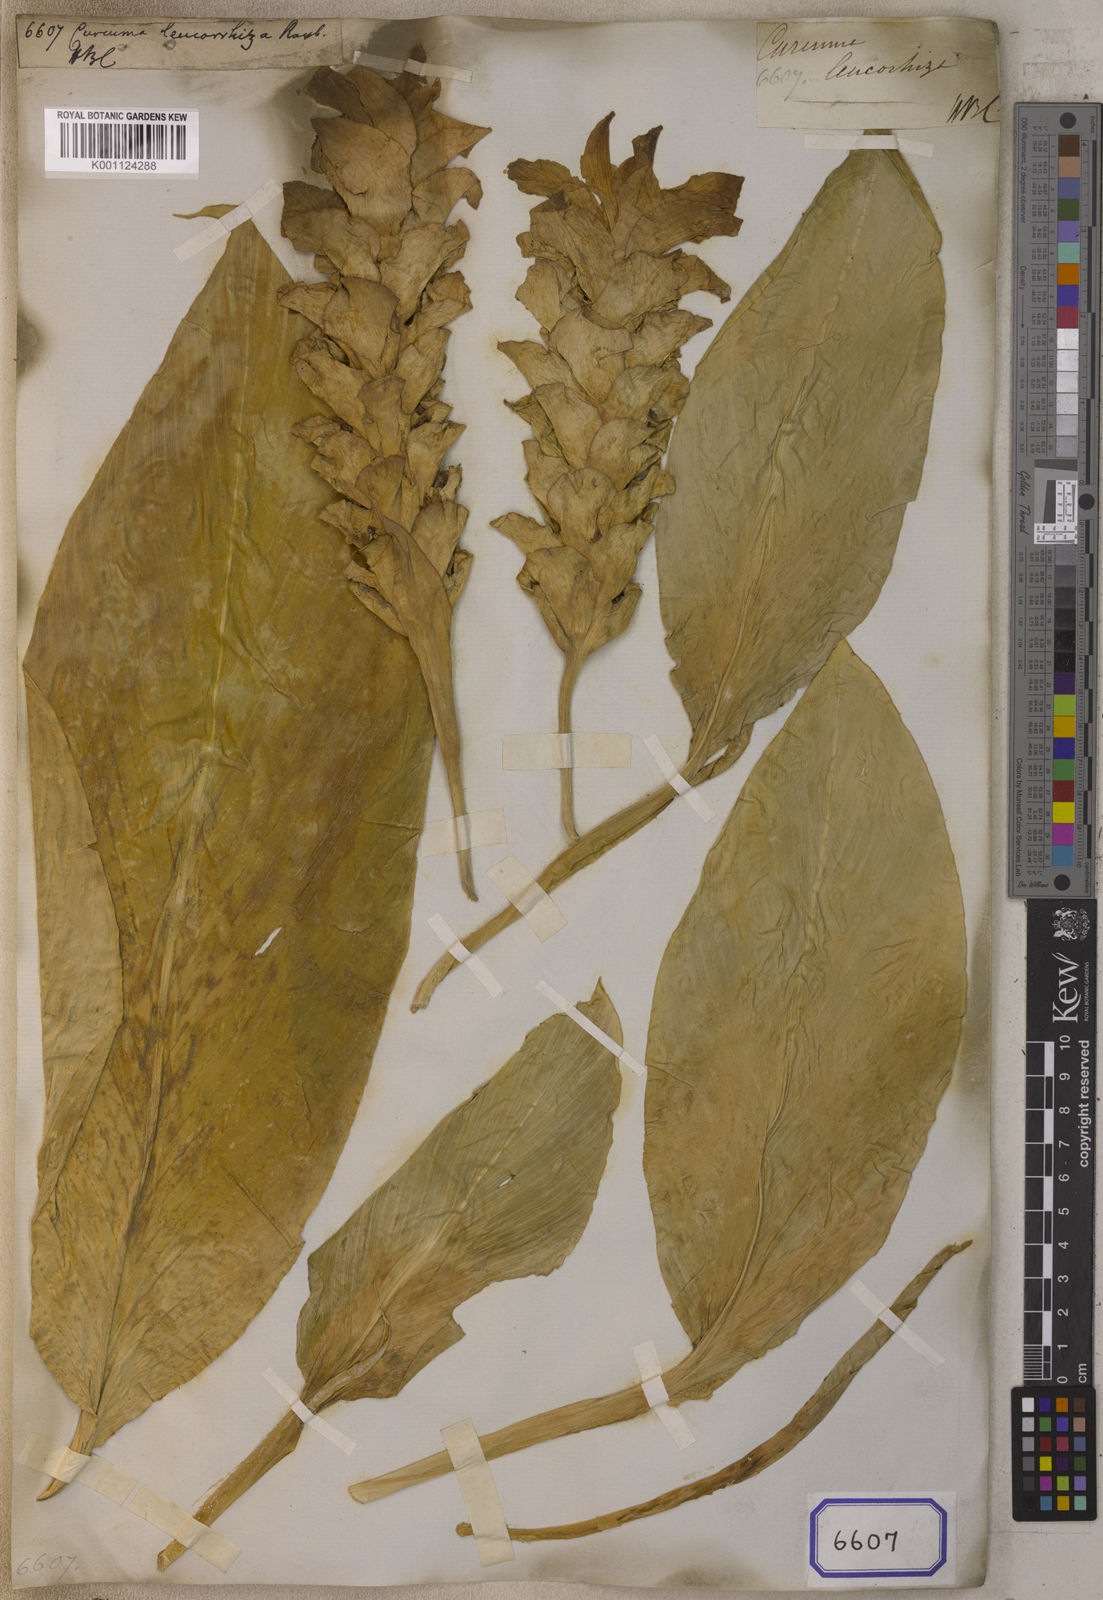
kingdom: Plantae
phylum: Tracheophyta
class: Liliopsida
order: Zingiberales
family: Zingiberaceae
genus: Curcuma
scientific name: Curcuma leucorrhiza
